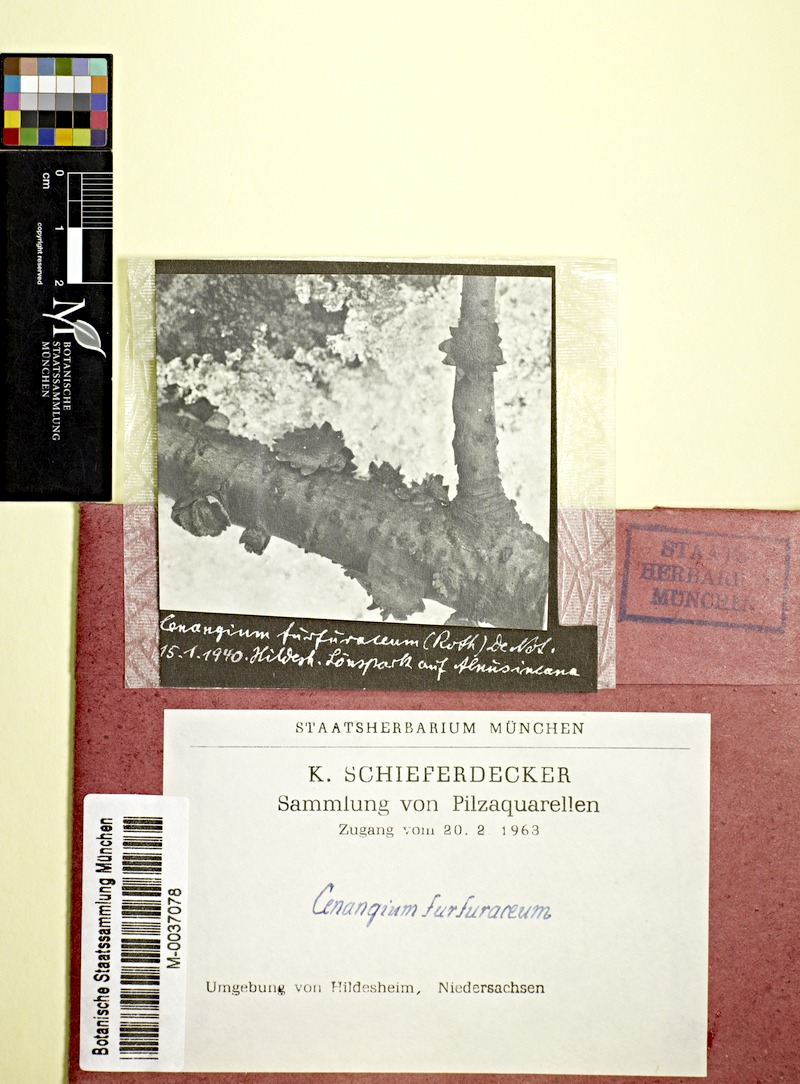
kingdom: Plantae
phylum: Tracheophyta
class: Magnoliopsida
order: Fagales
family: Betulaceae
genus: Alnus
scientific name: Alnus incana
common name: Grey alder
